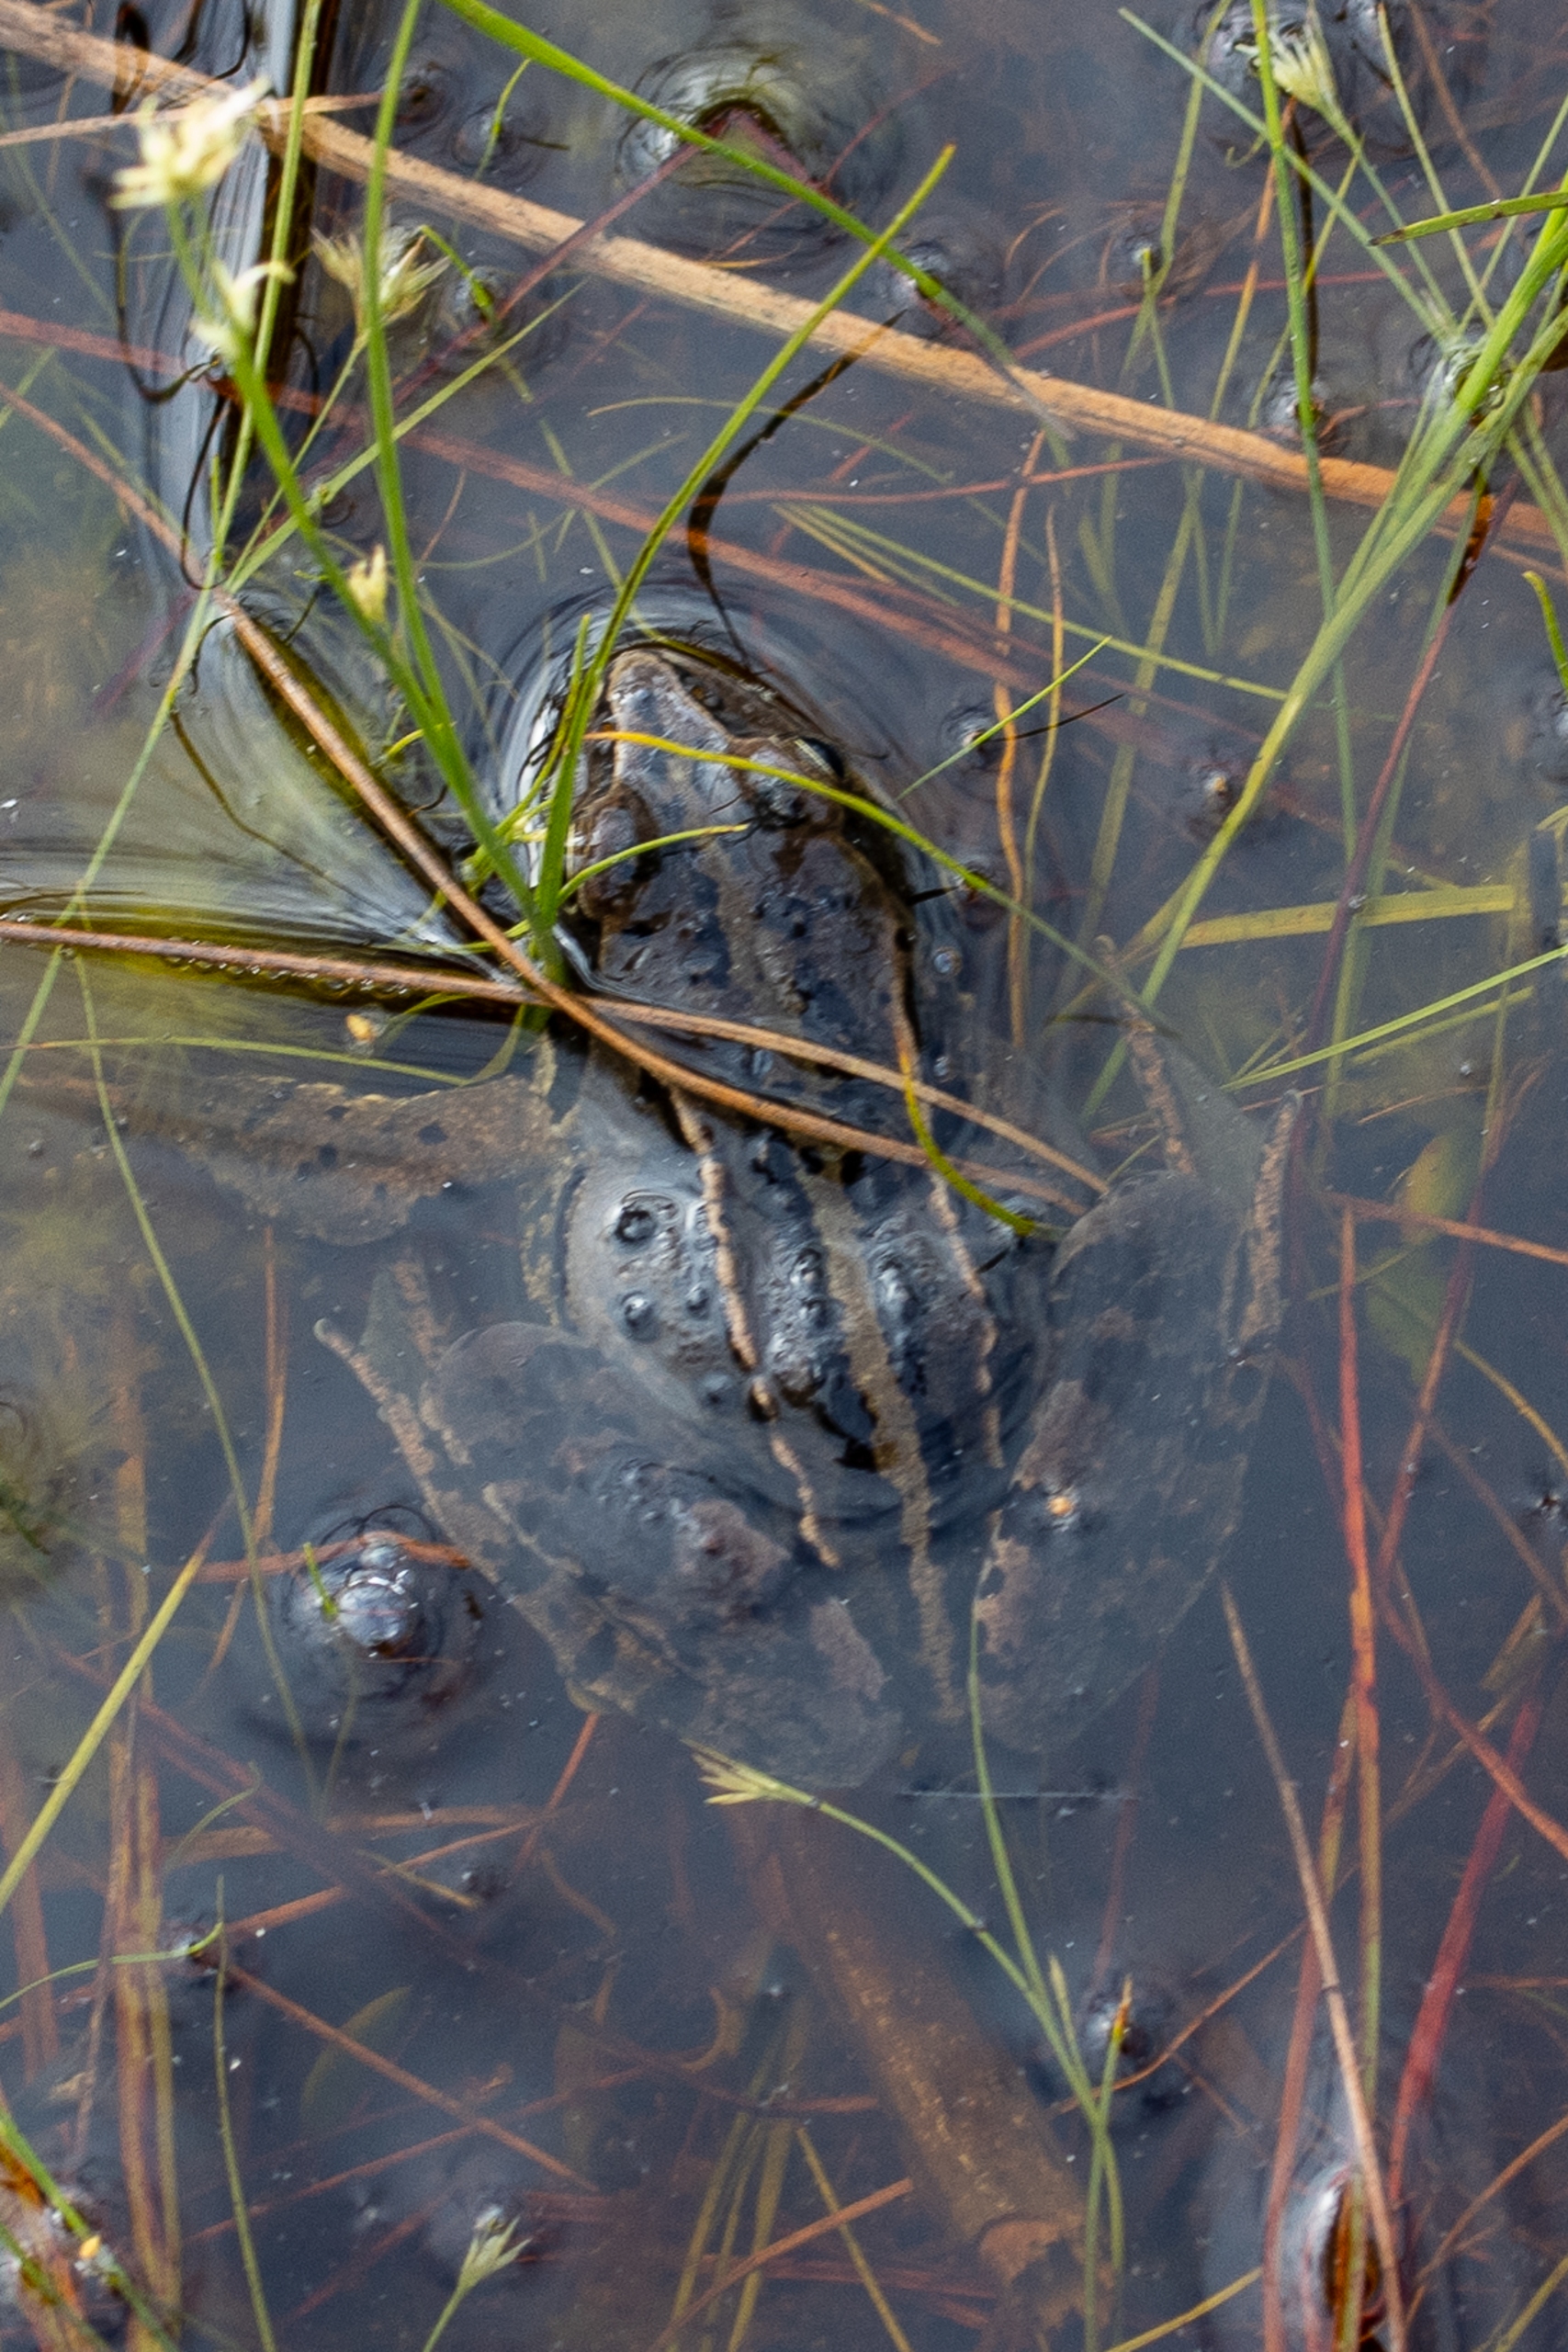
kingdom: Animalia
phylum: Chordata
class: Amphibia
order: Anura
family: Ranidae
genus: Rana
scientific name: Rana arvalis
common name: Spidssnudet frø
